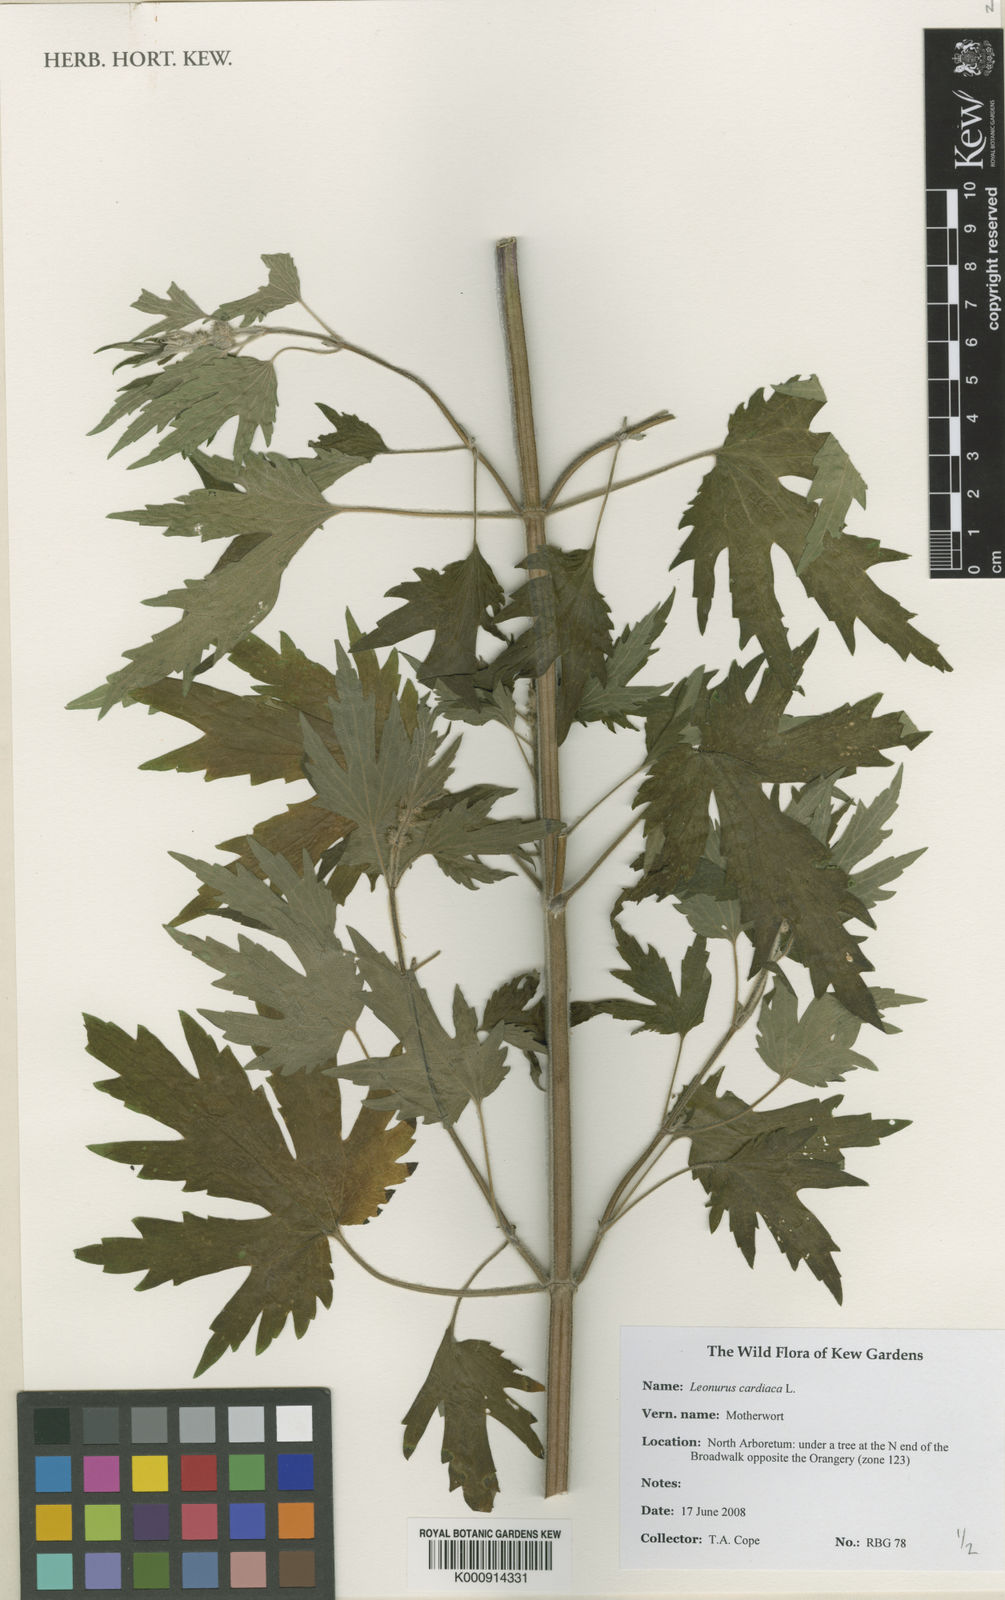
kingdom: Plantae
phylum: Tracheophyta
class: Magnoliopsida
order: Lamiales
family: Lamiaceae
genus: Leonurus
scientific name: Leonurus cardiaca
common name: Motherwort
